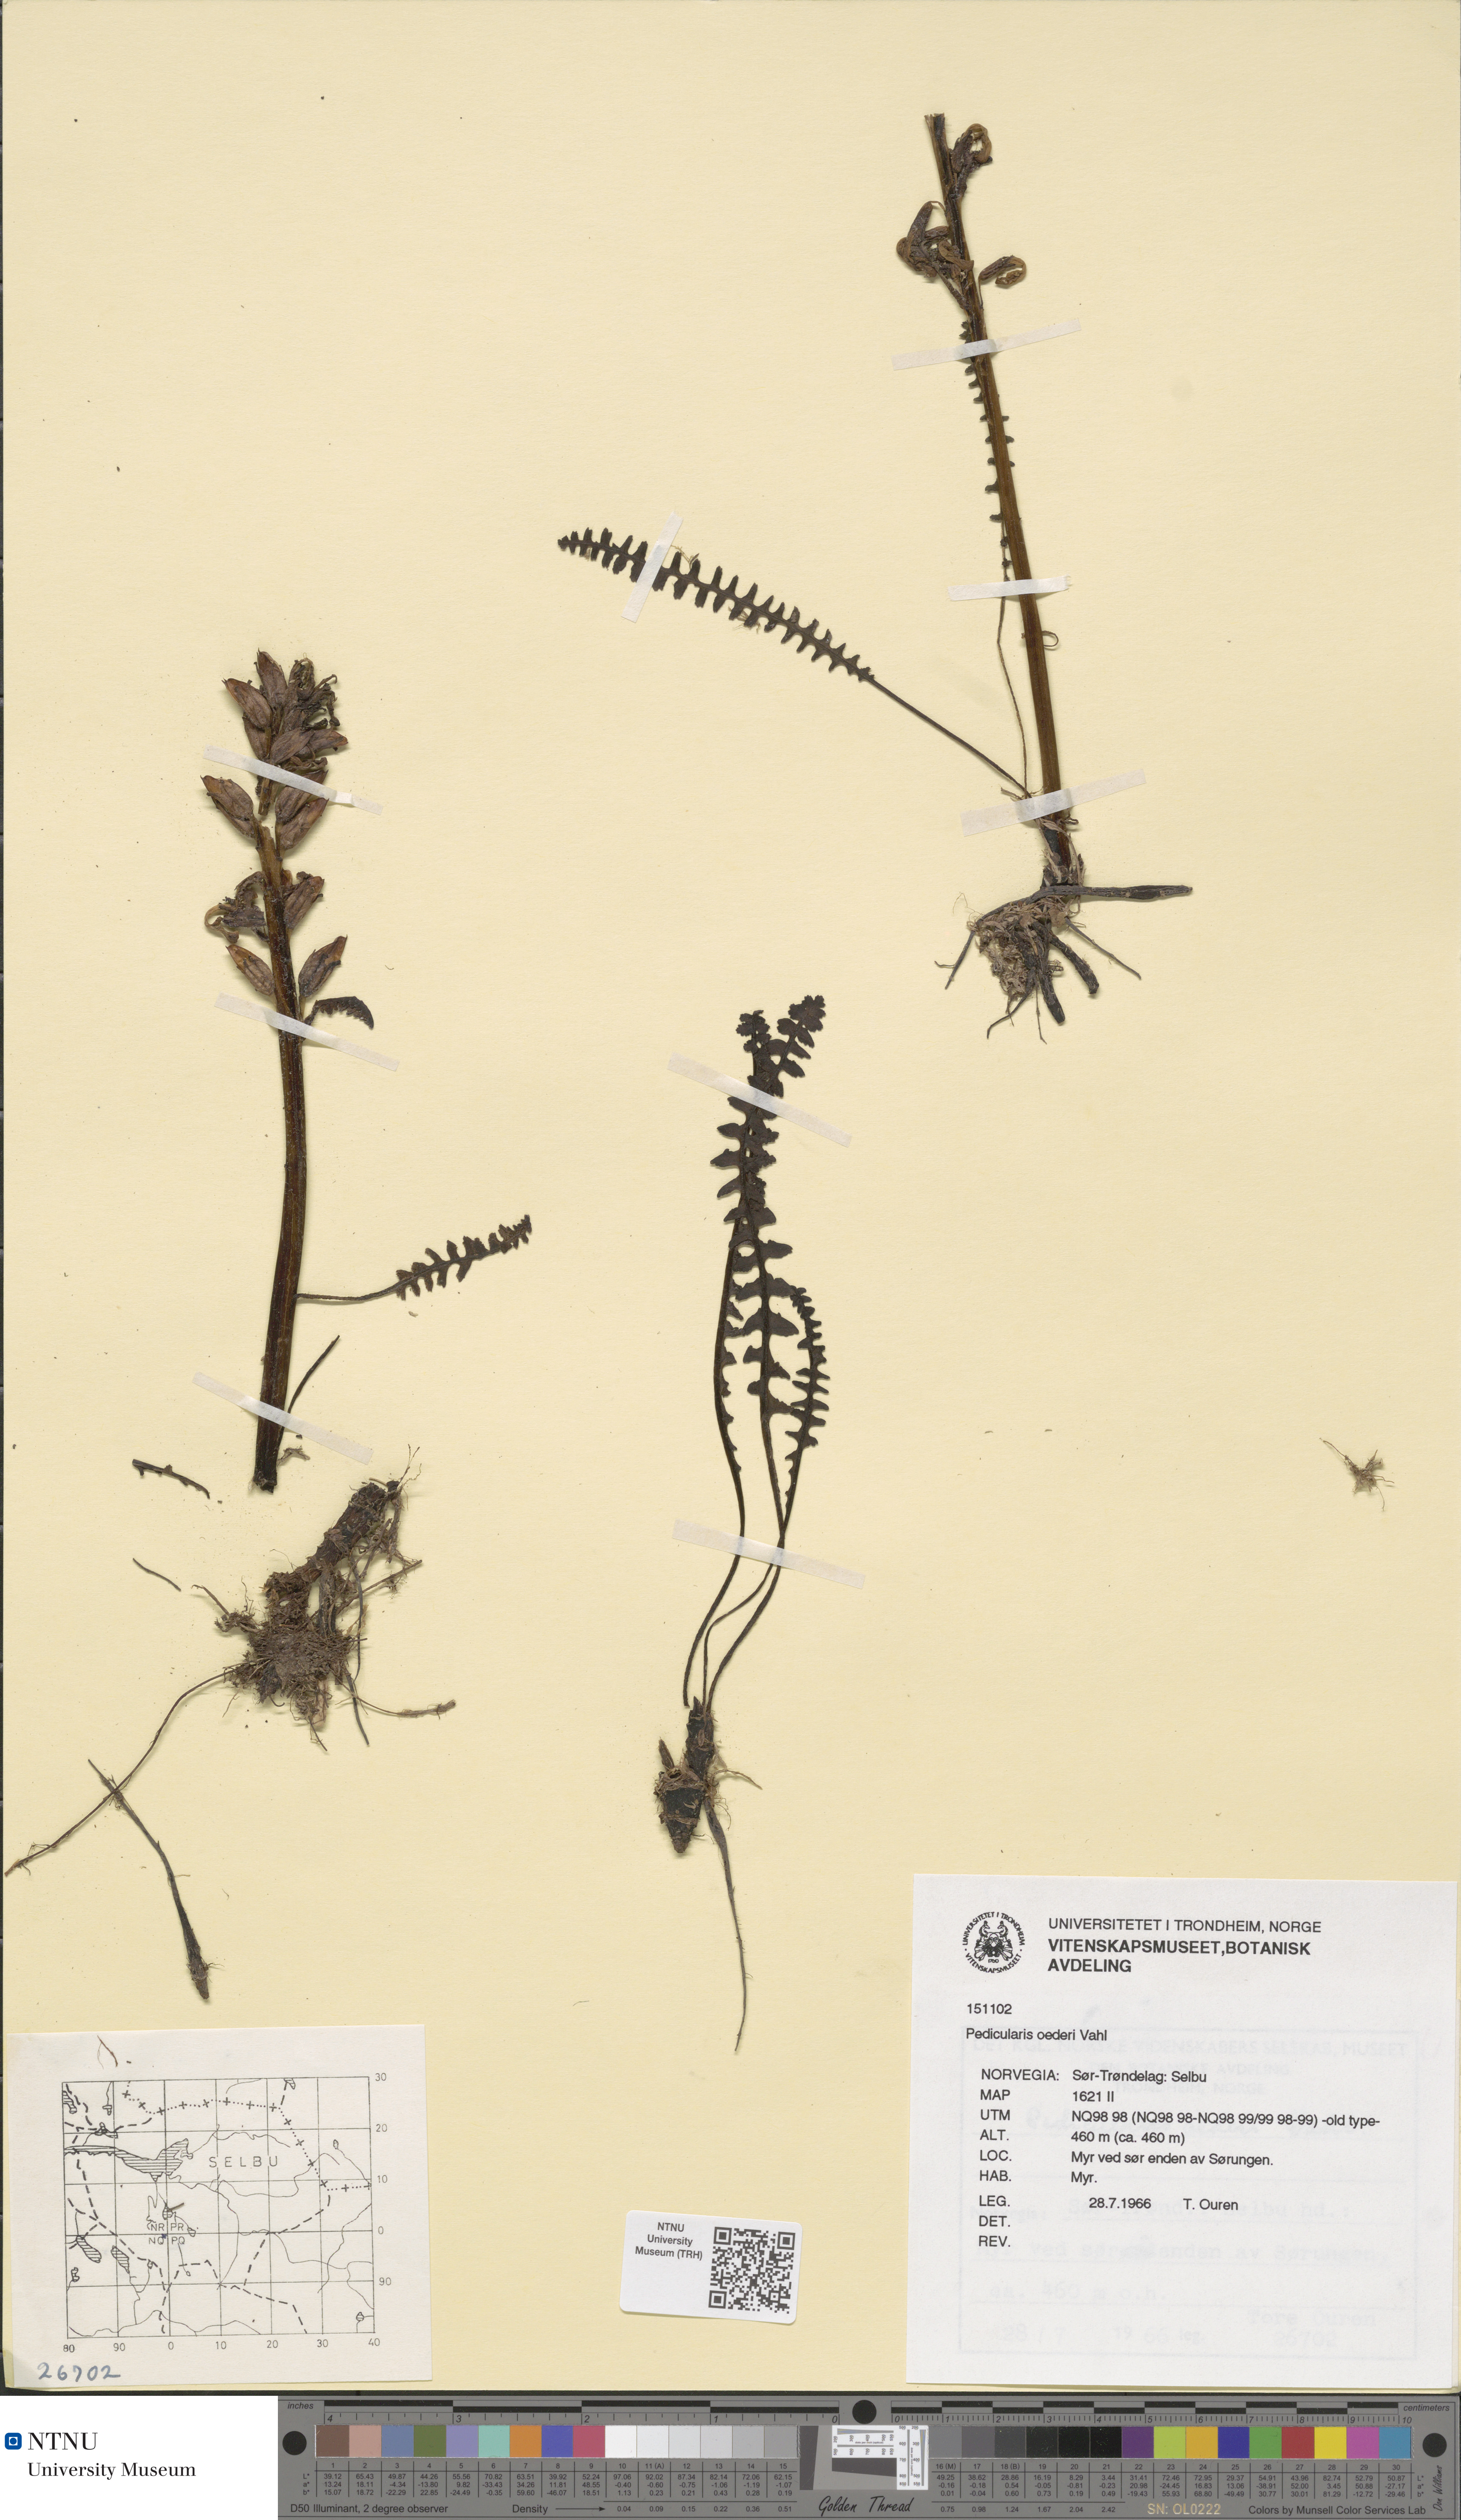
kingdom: Plantae
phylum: Tracheophyta
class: Magnoliopsida
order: Lamiales
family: Orobanchaceae
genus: Pedicularis
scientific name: Pedicularis oederi
